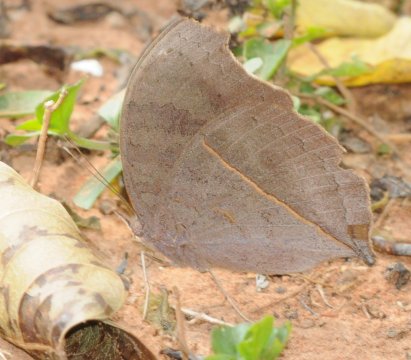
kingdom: Animalia
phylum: Arthropoda
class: Insecta
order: Lepidoptera
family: Nymphalidae
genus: Junonia
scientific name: Junonia artaxia
